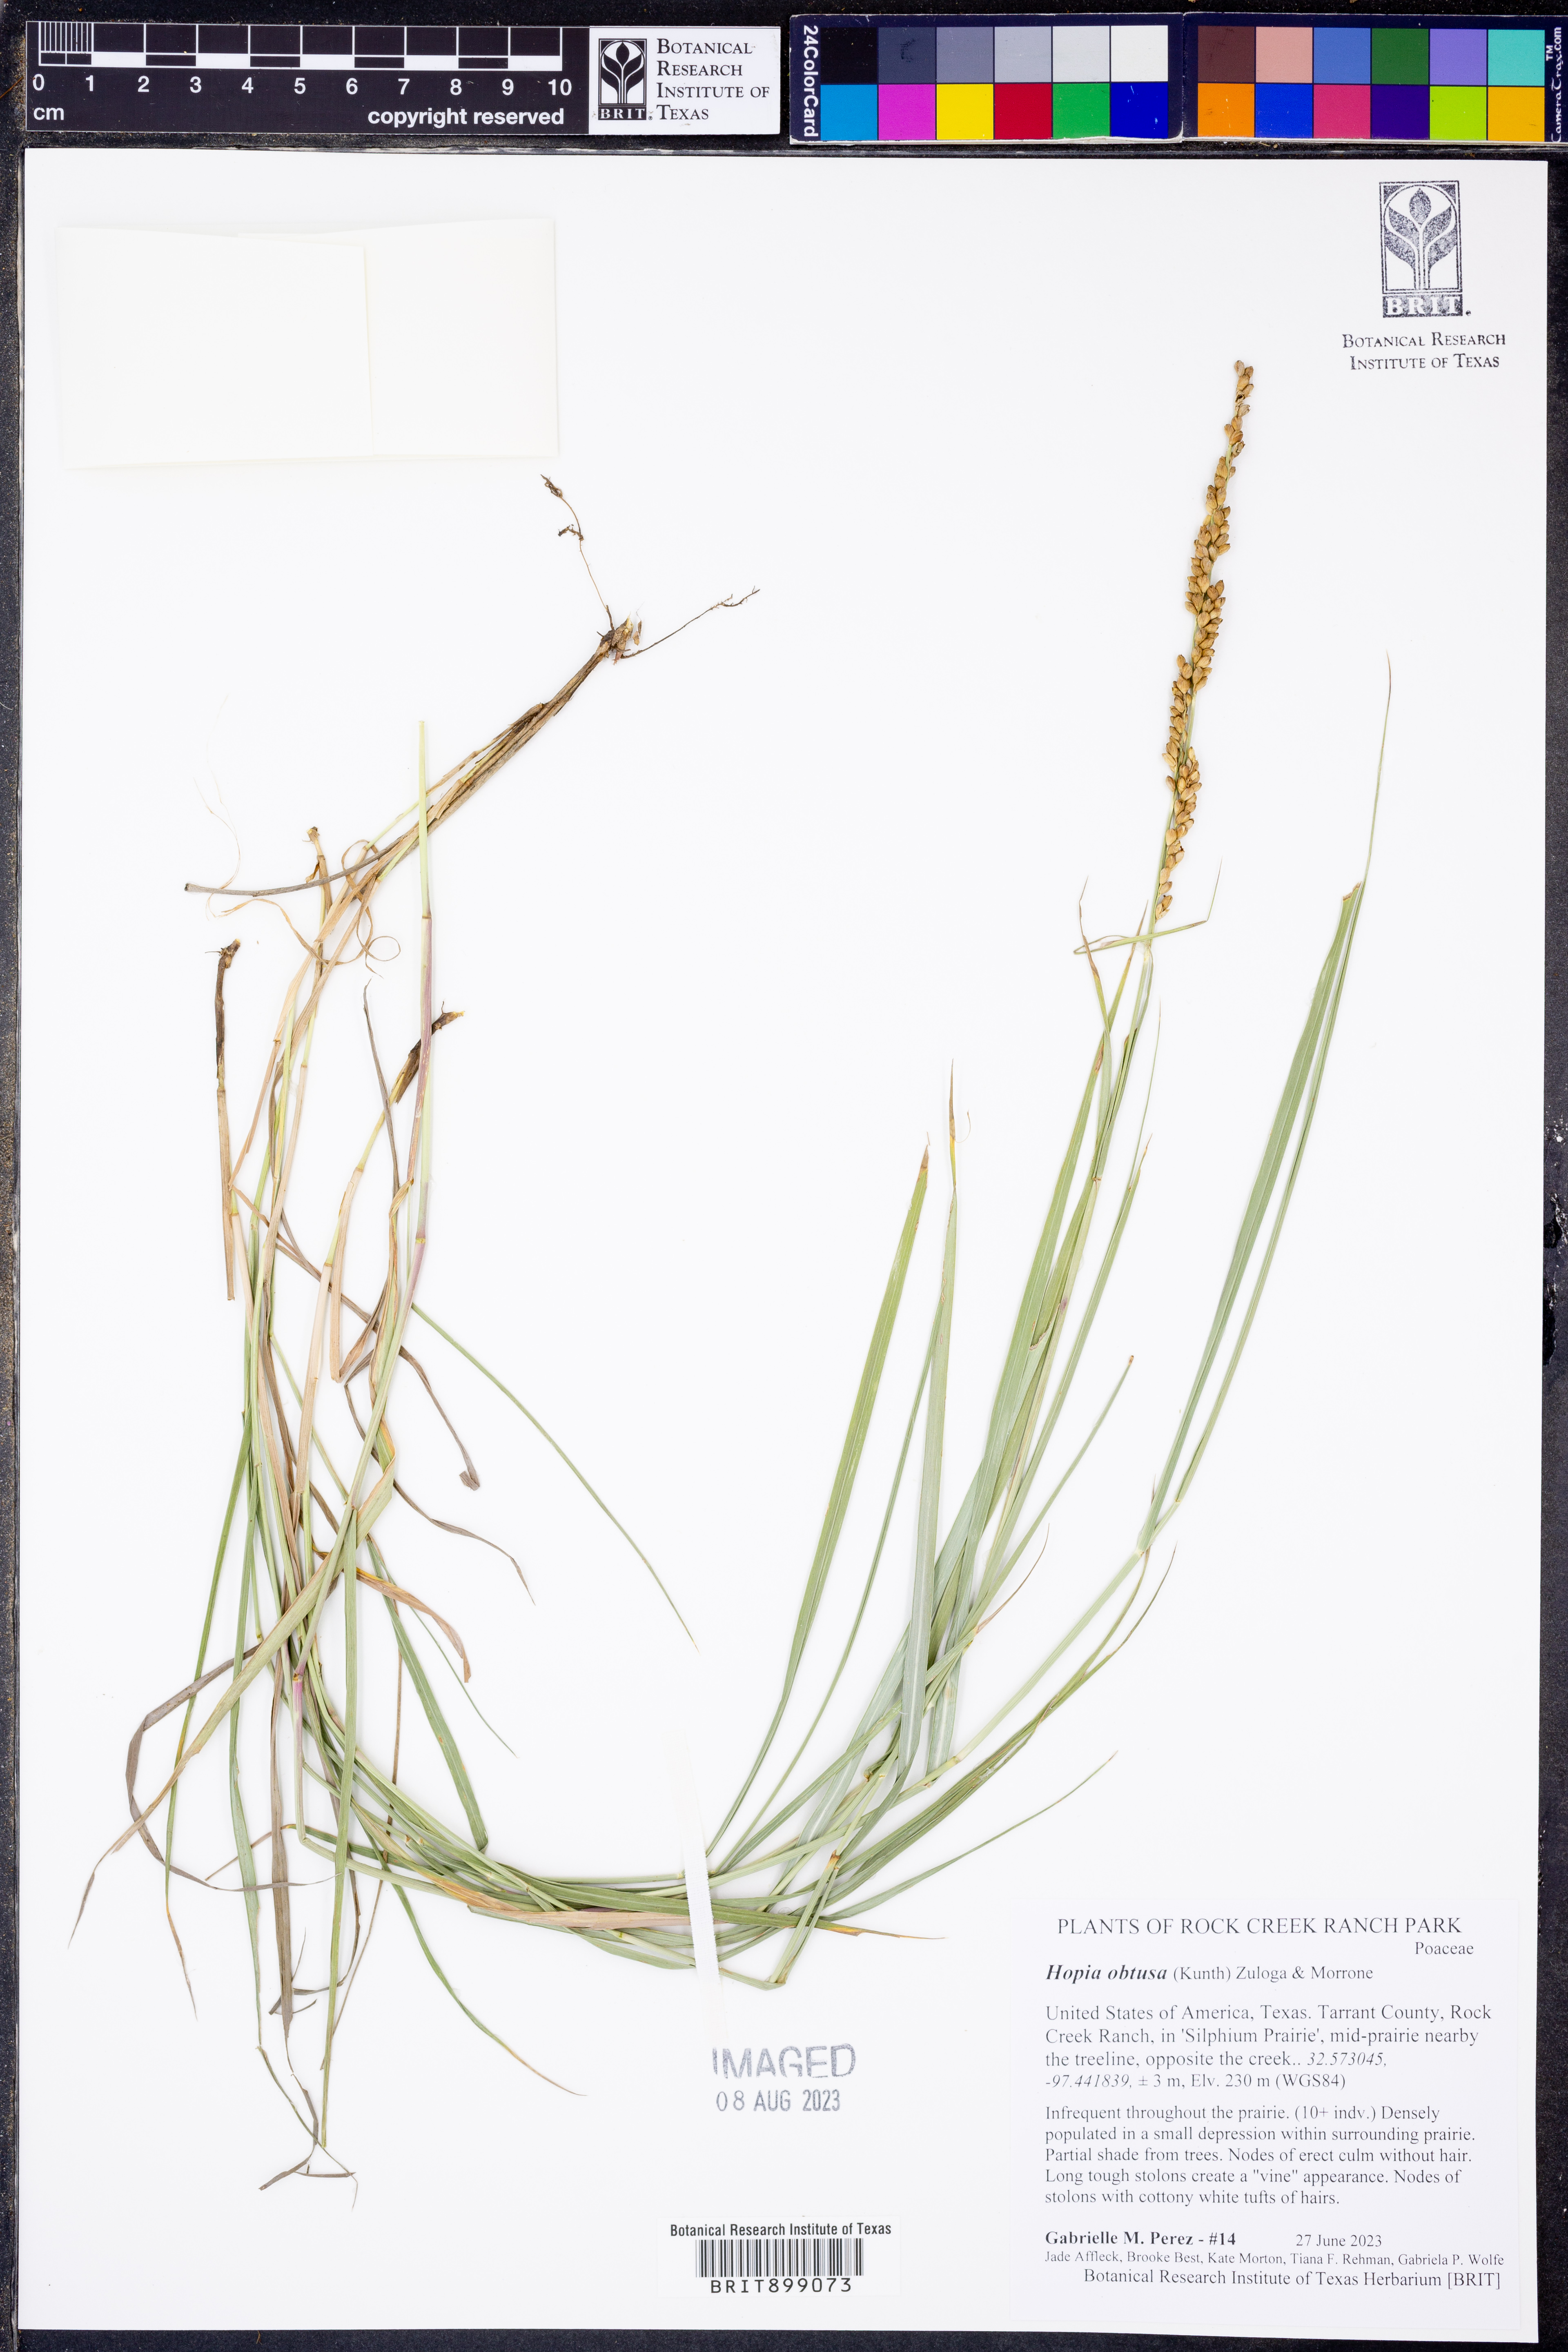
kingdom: Plantae
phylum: Tracheophyta
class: Liliopsida
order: Poales
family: Poaceae
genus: Hopia
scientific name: Hopia obtusa
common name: Vine-mesquite
